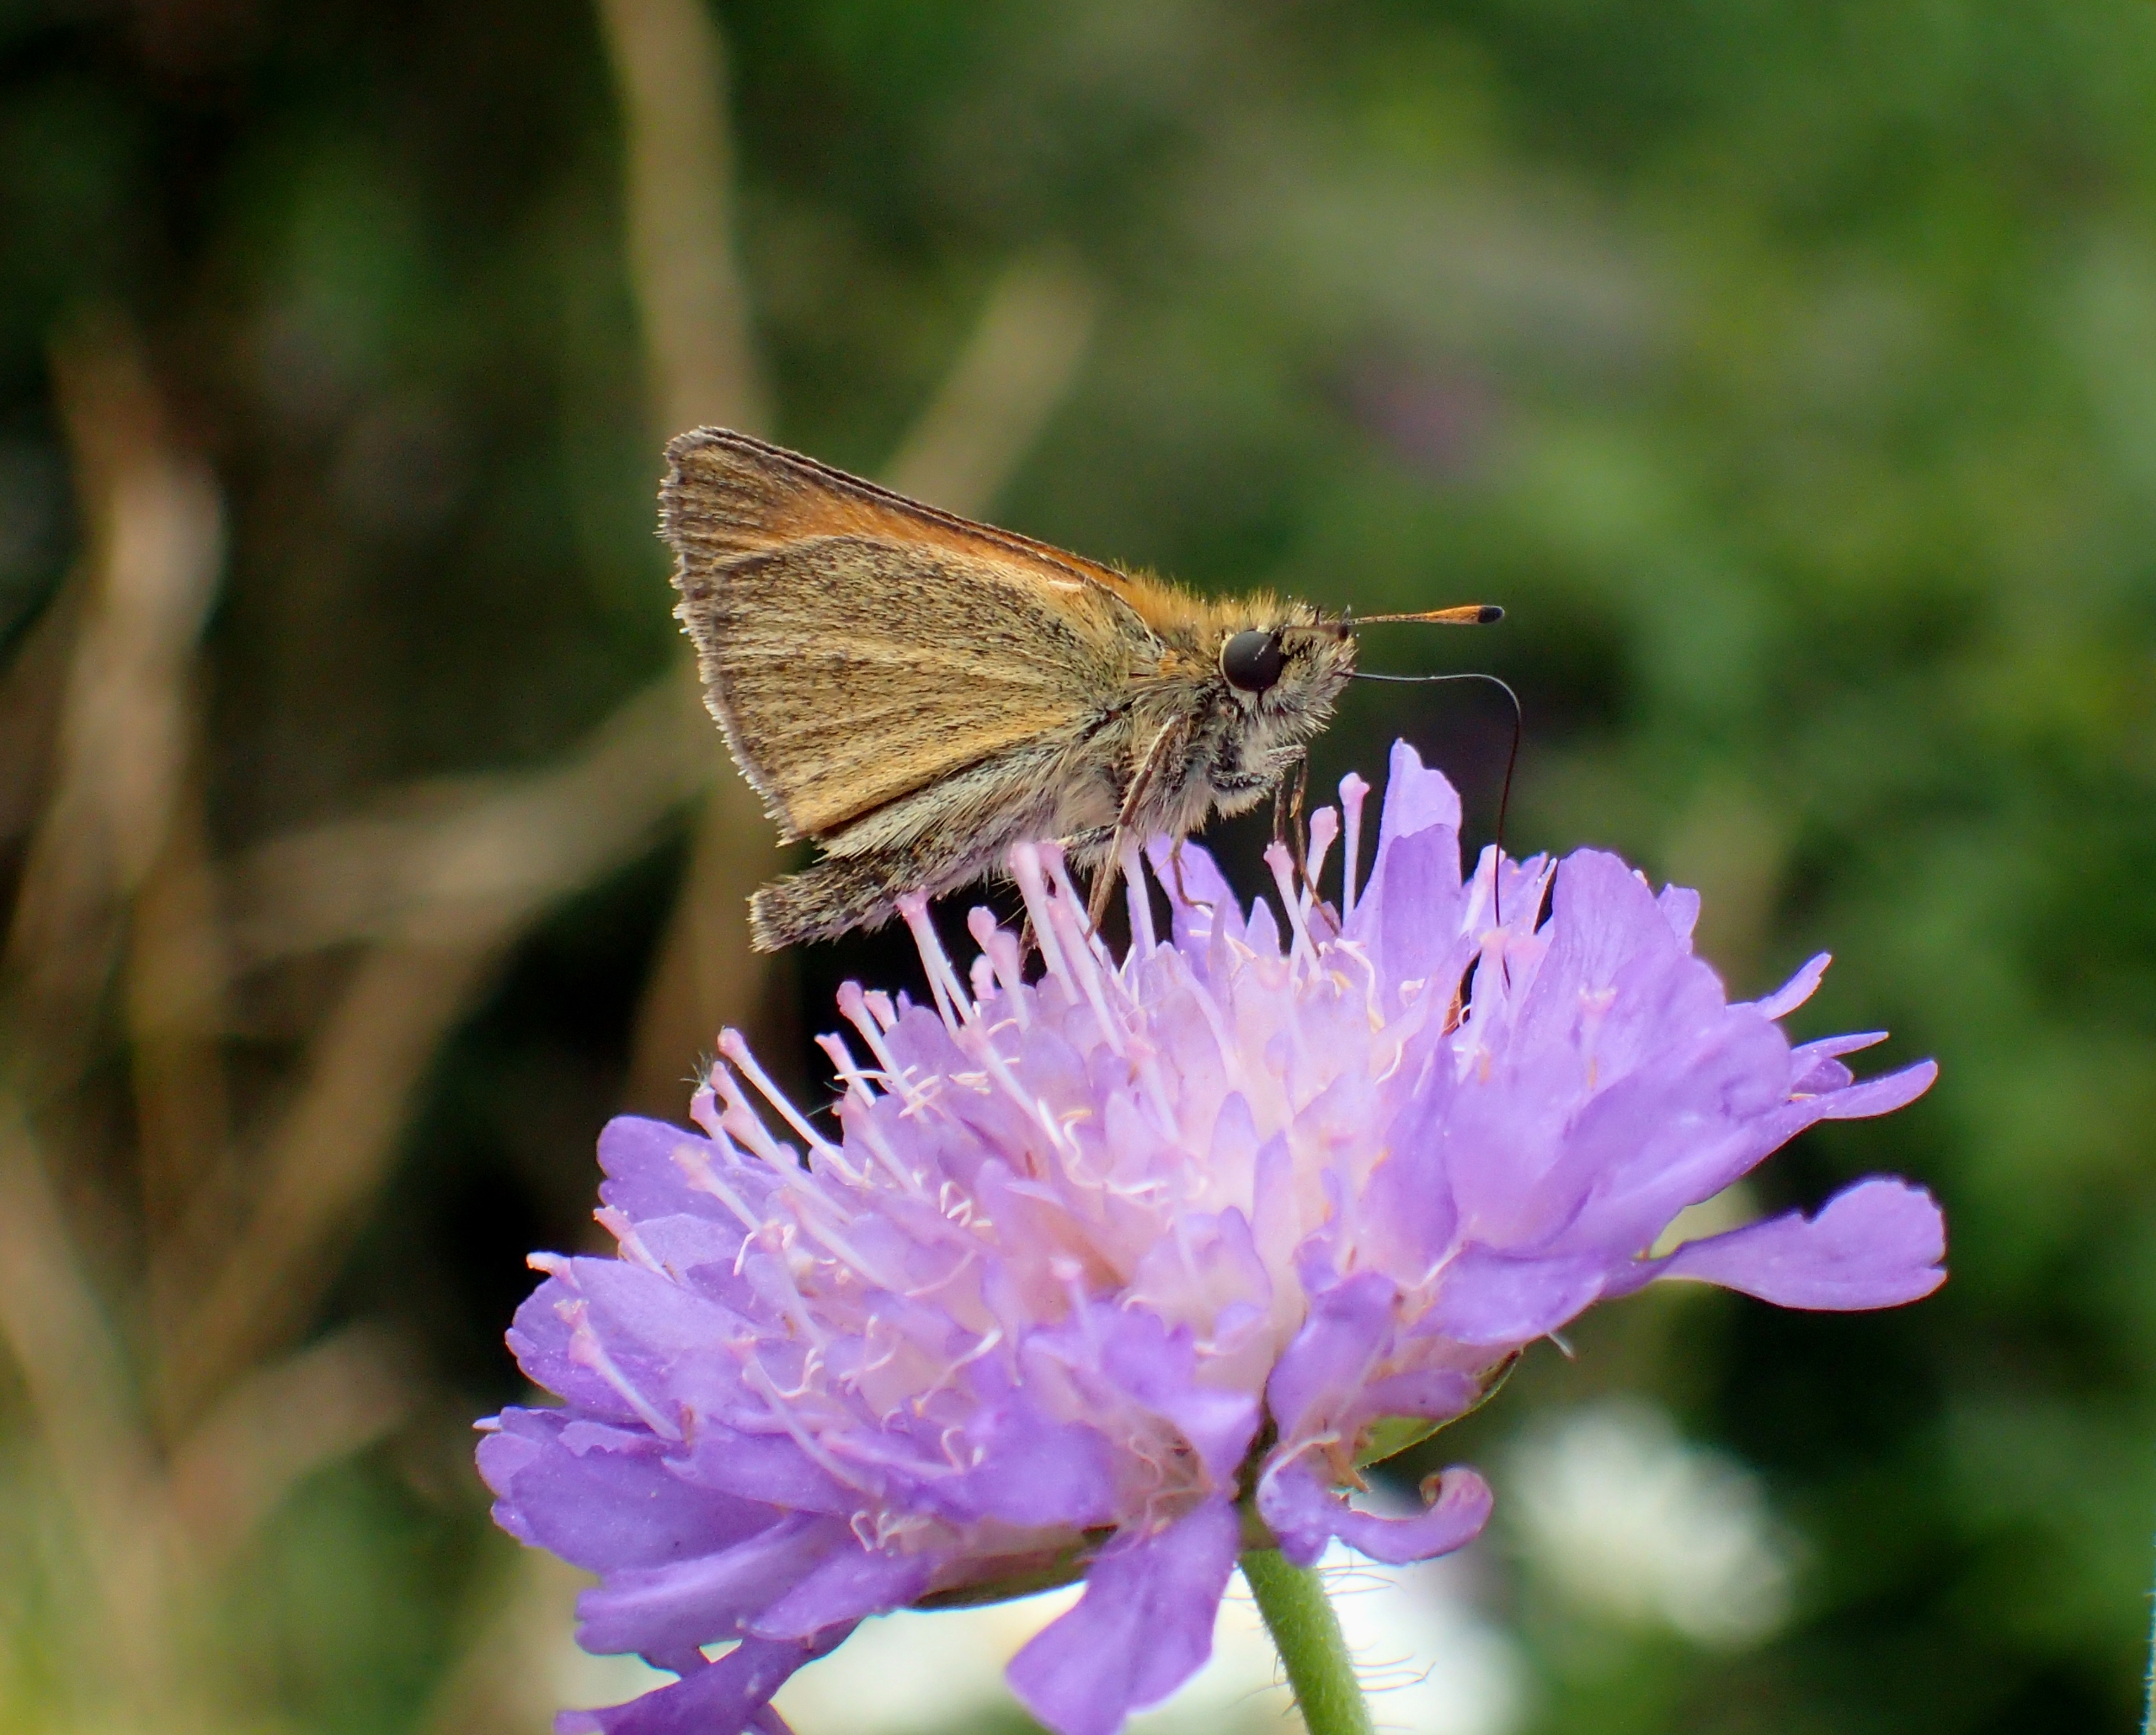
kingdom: Animalia
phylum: Arthropoda
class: Insecta
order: Lepidoptera
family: Hesperiidae
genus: Thymelicus
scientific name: Thymelicus lineola
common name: Stregbredpande
